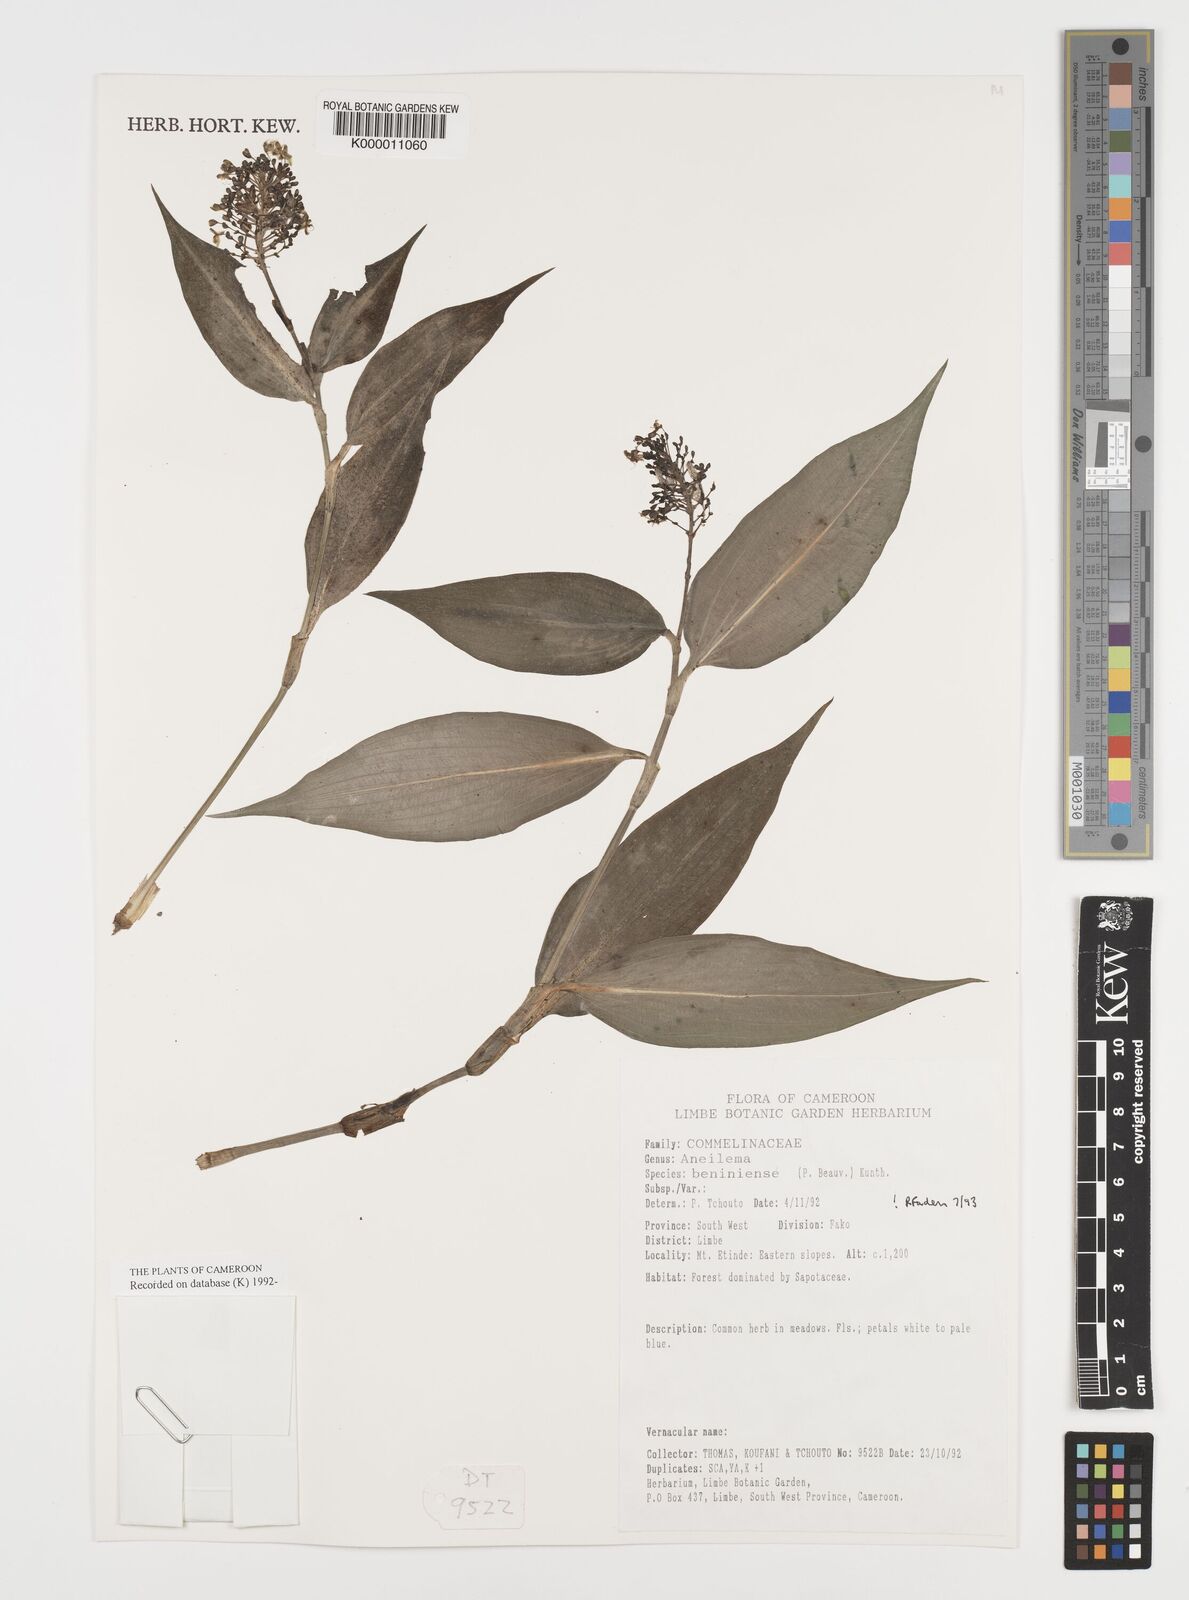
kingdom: Plantae
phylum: Tracheophyta
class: Liliopsida
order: Commelinales
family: Commelinaceae
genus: Aneilema
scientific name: Aneilema beniniense
